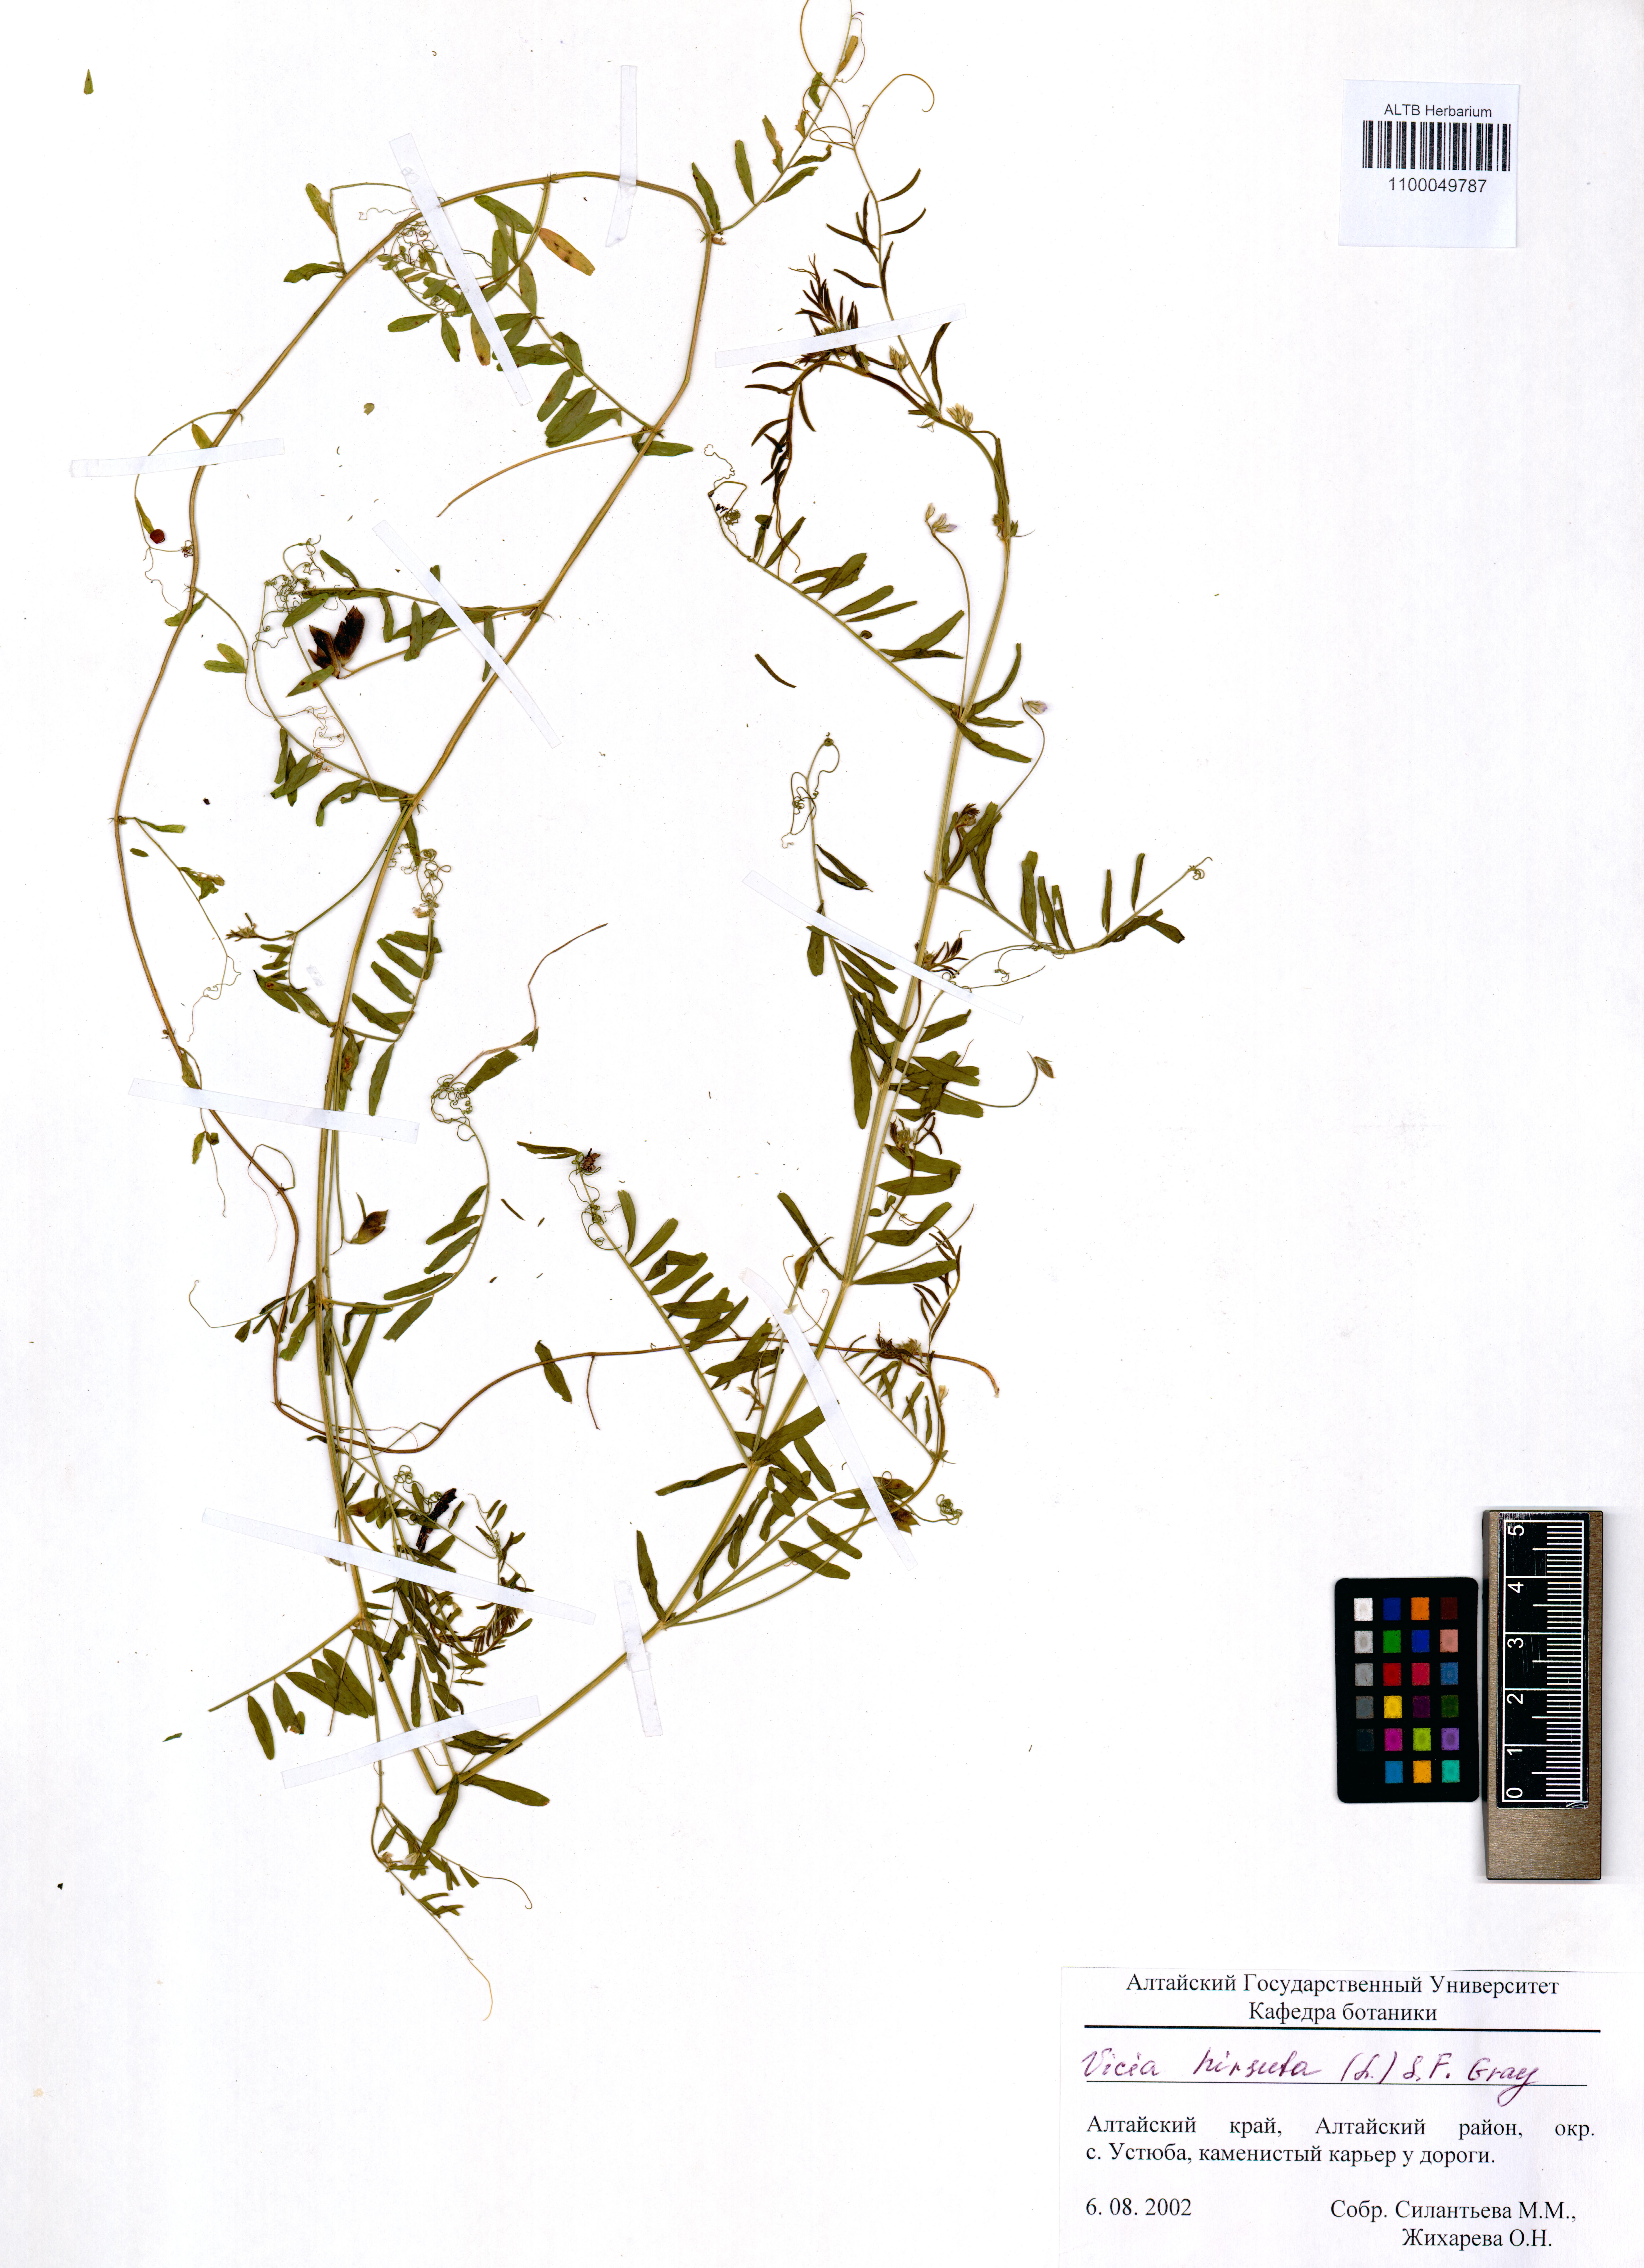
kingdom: Plantae
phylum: Tracheophyta
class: Magnoliopsida
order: Fabales
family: Fabaceae
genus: Vicia
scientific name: Vicia hirsuta
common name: Tiny vetch
